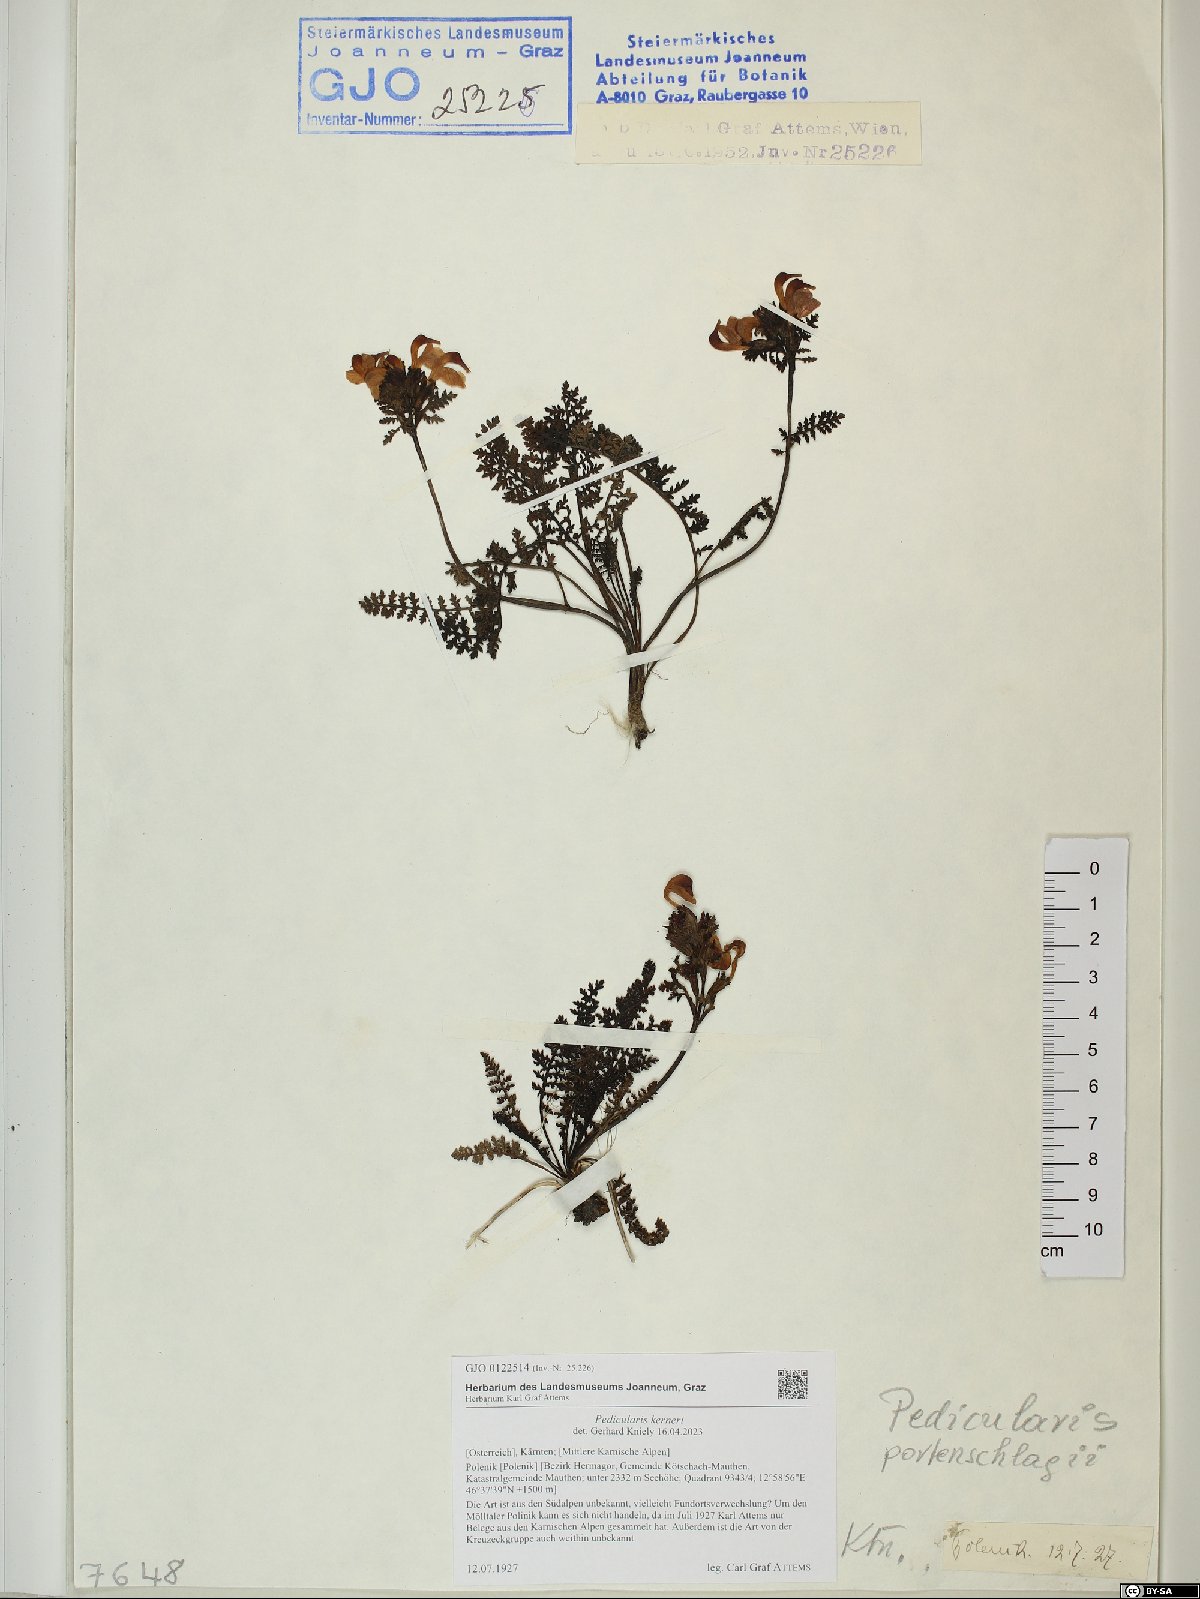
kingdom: Plantae
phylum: Tracheophyta
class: Magnoliopsida
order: Lamiales
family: Orobanchaceae
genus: Pedicularis
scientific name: Pedicularis kerneri
